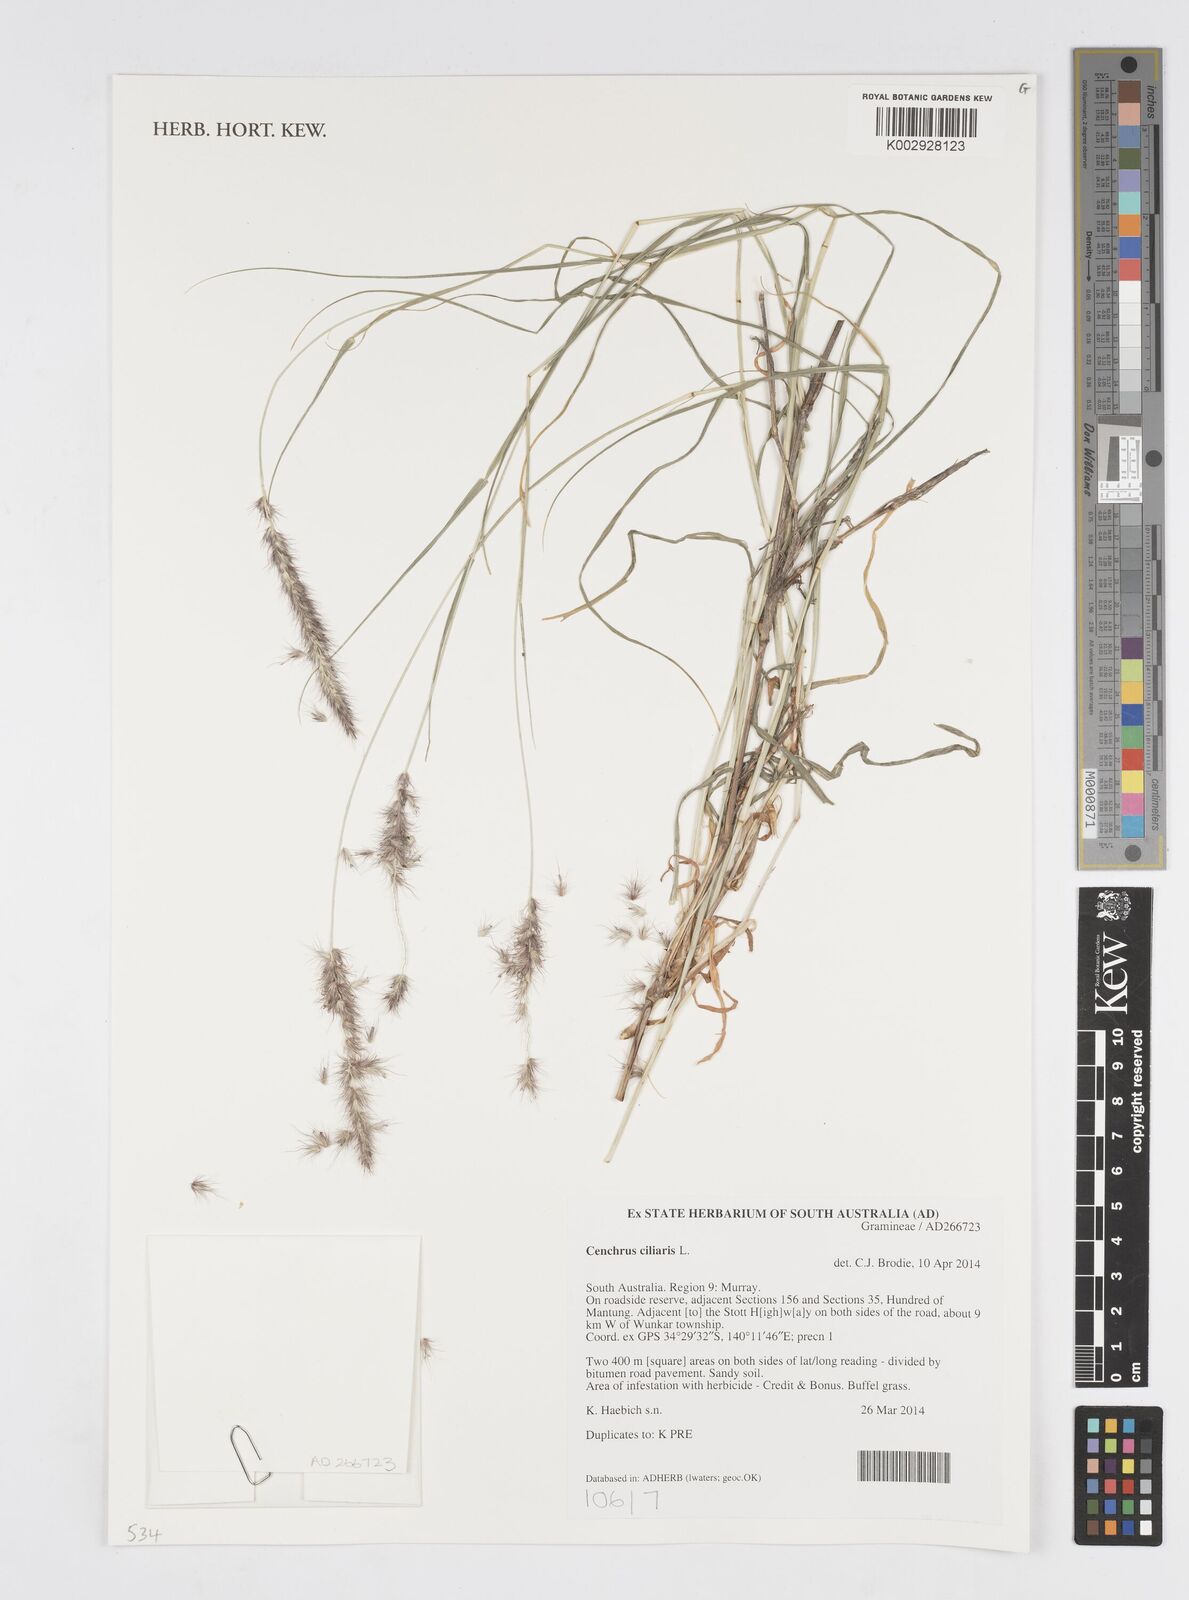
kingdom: Plantae
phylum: Tracheophyta
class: Liliopsida
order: Poales
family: Poaceae
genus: Cenchrus
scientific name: Cenchrus ciliaris
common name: Buffelgrass
